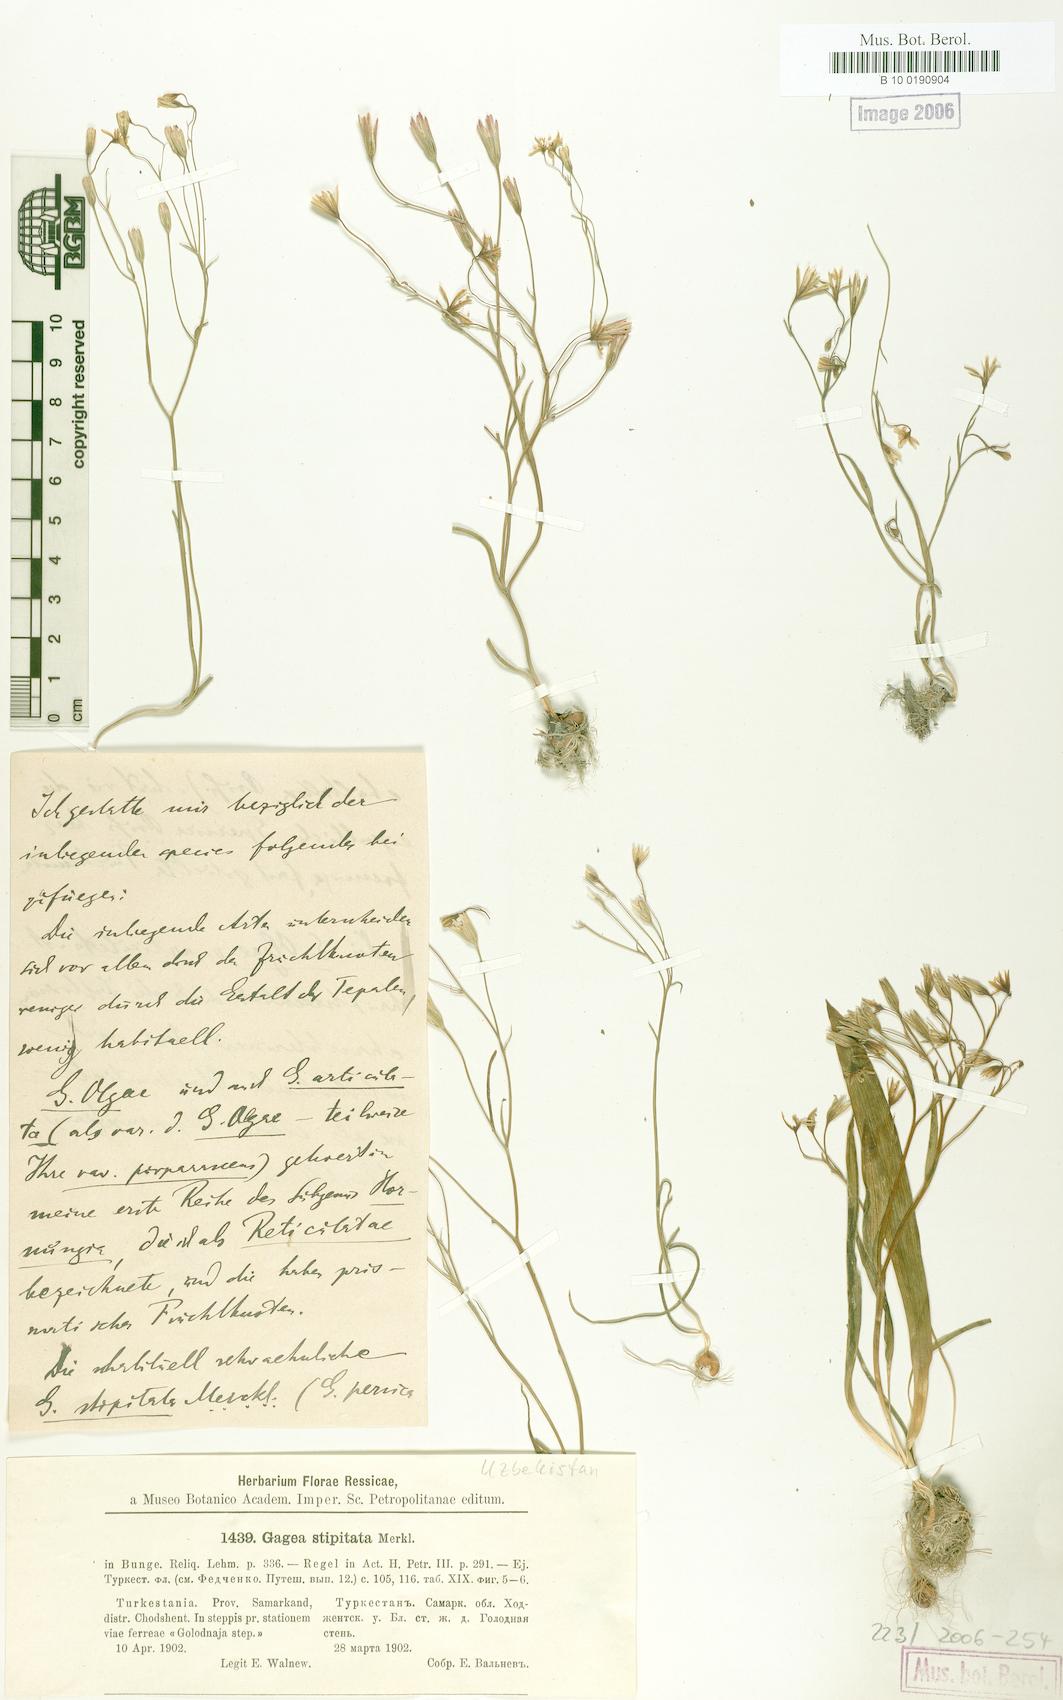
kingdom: Plantae
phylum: Tracheophyta
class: Liliopsida
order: Liliales
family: Liliaceae
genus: Gagea
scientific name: Gagea kunawurensis
